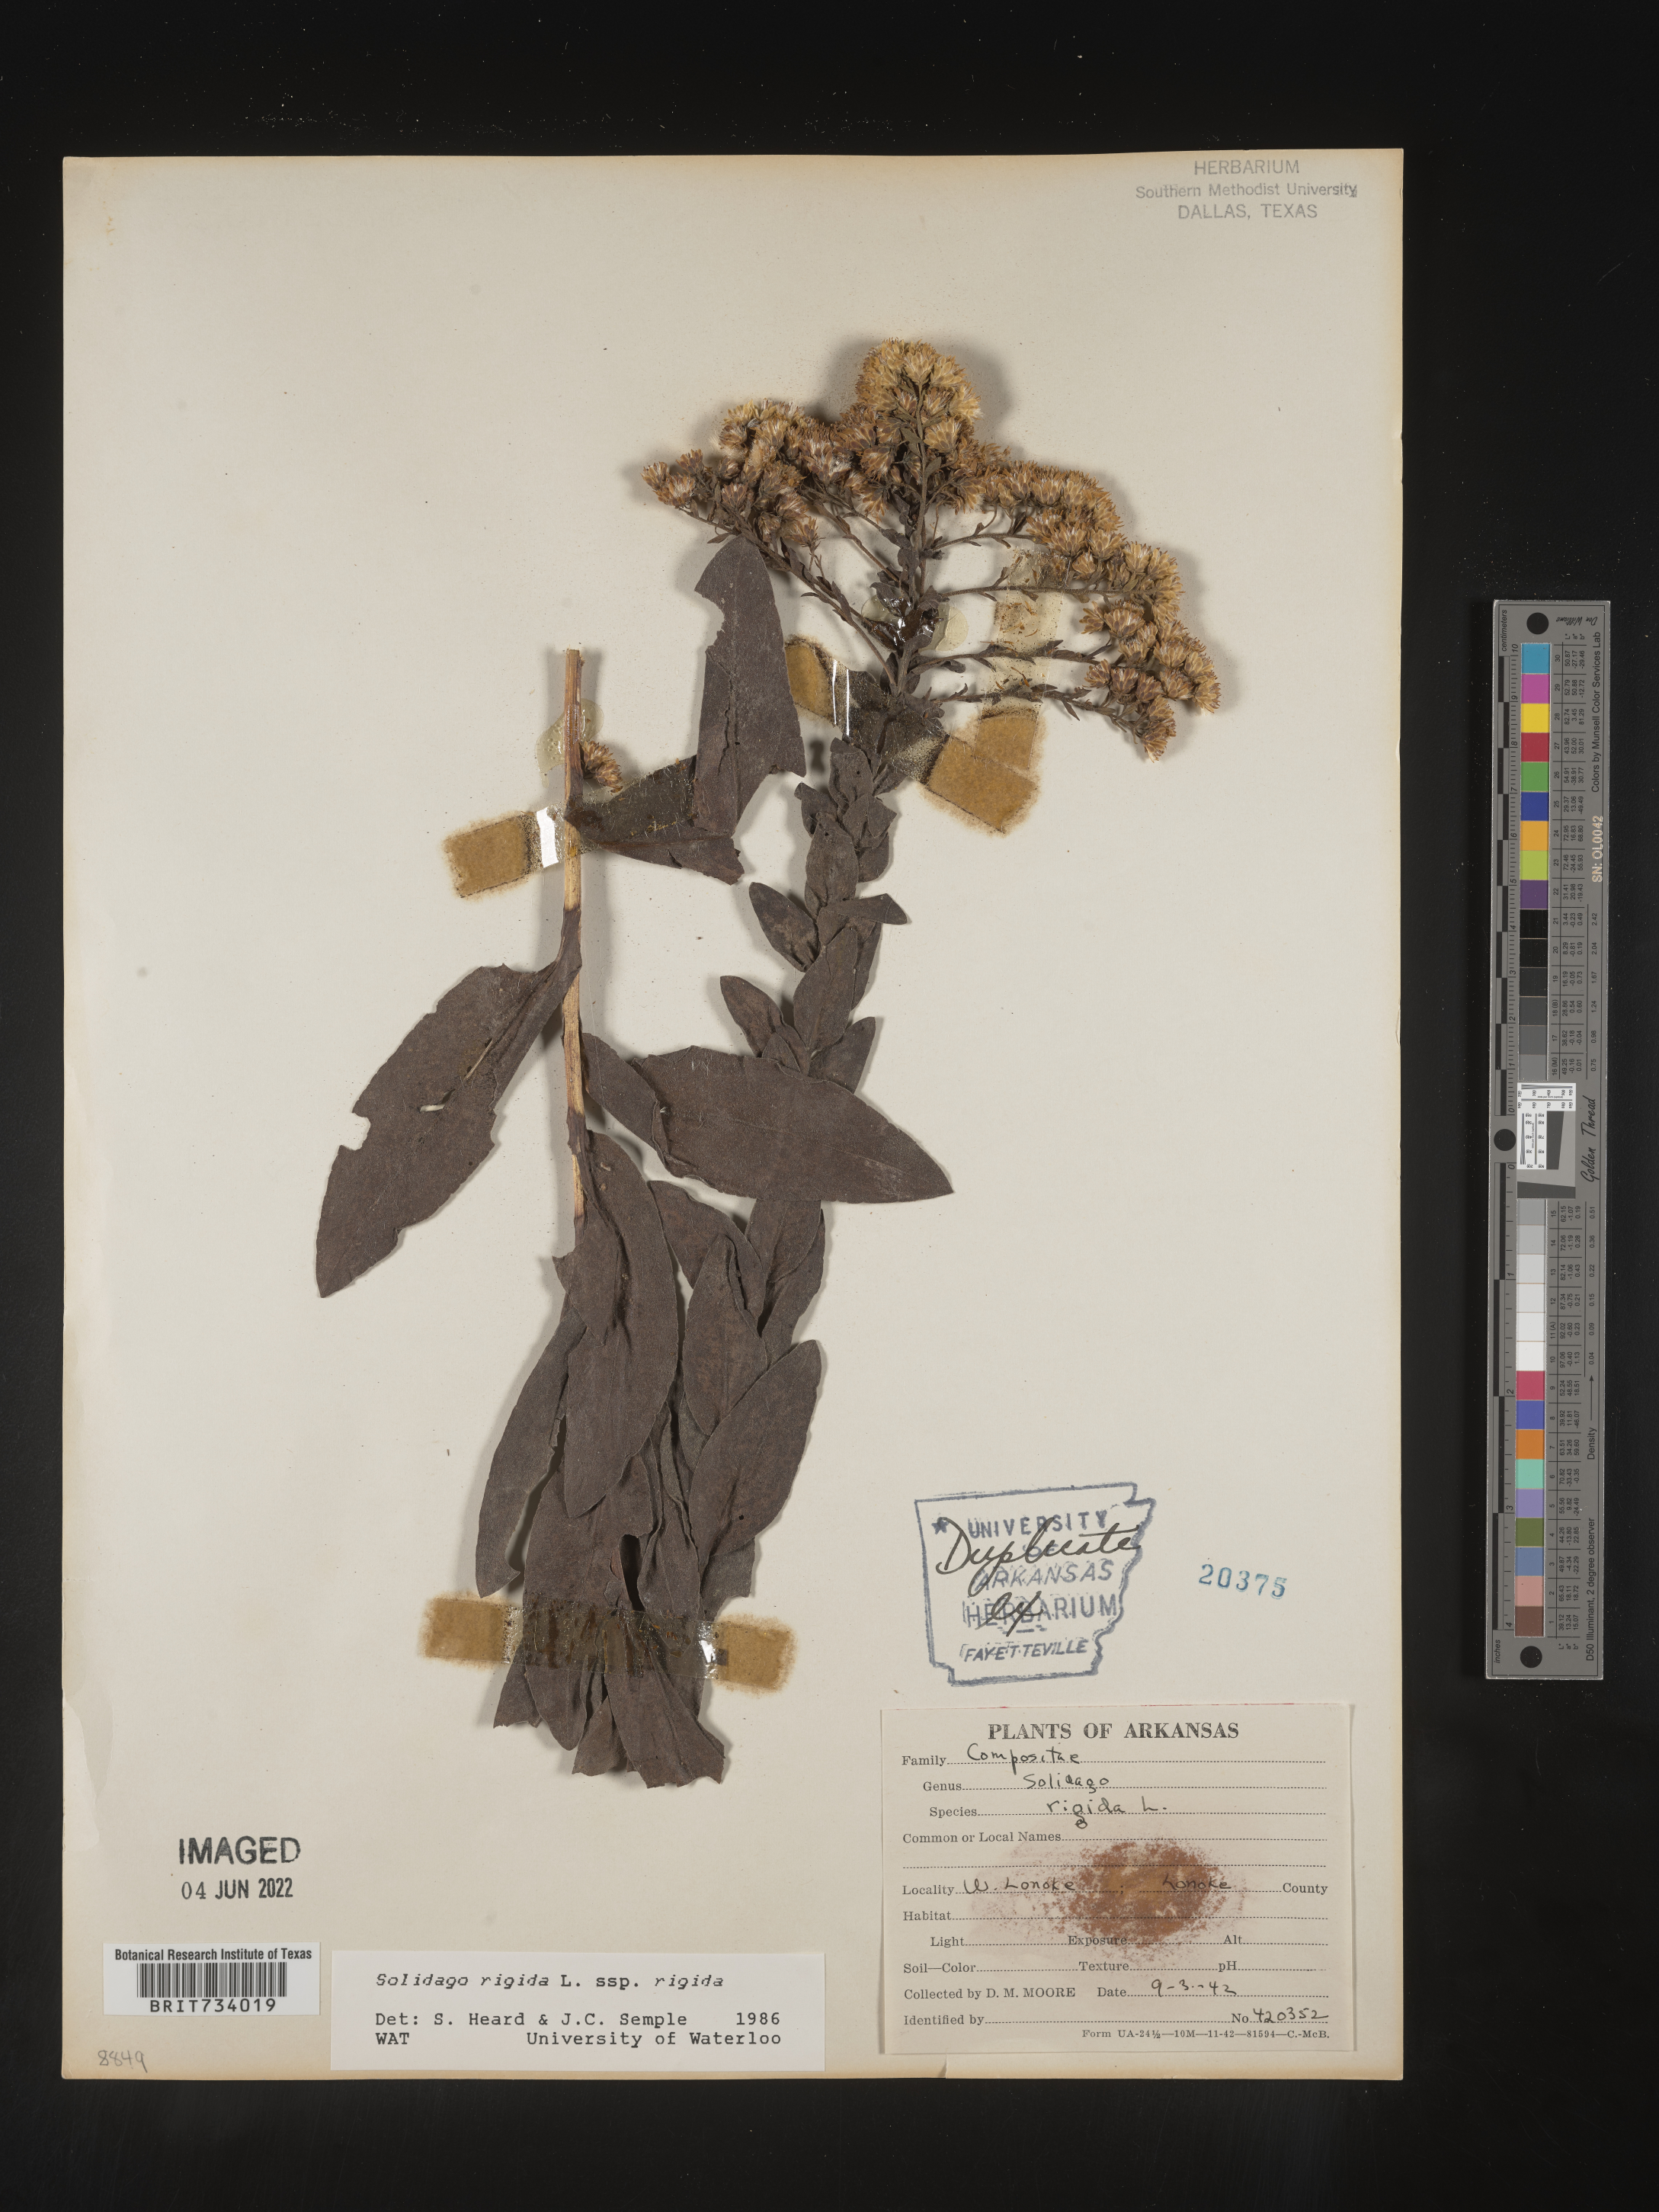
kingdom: Plantae
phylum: Tracheophyta
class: Magnoliopsida
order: Asterales
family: Asteraceae
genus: Solidago
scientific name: Solidago rigida
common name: Rigid goldenrod
